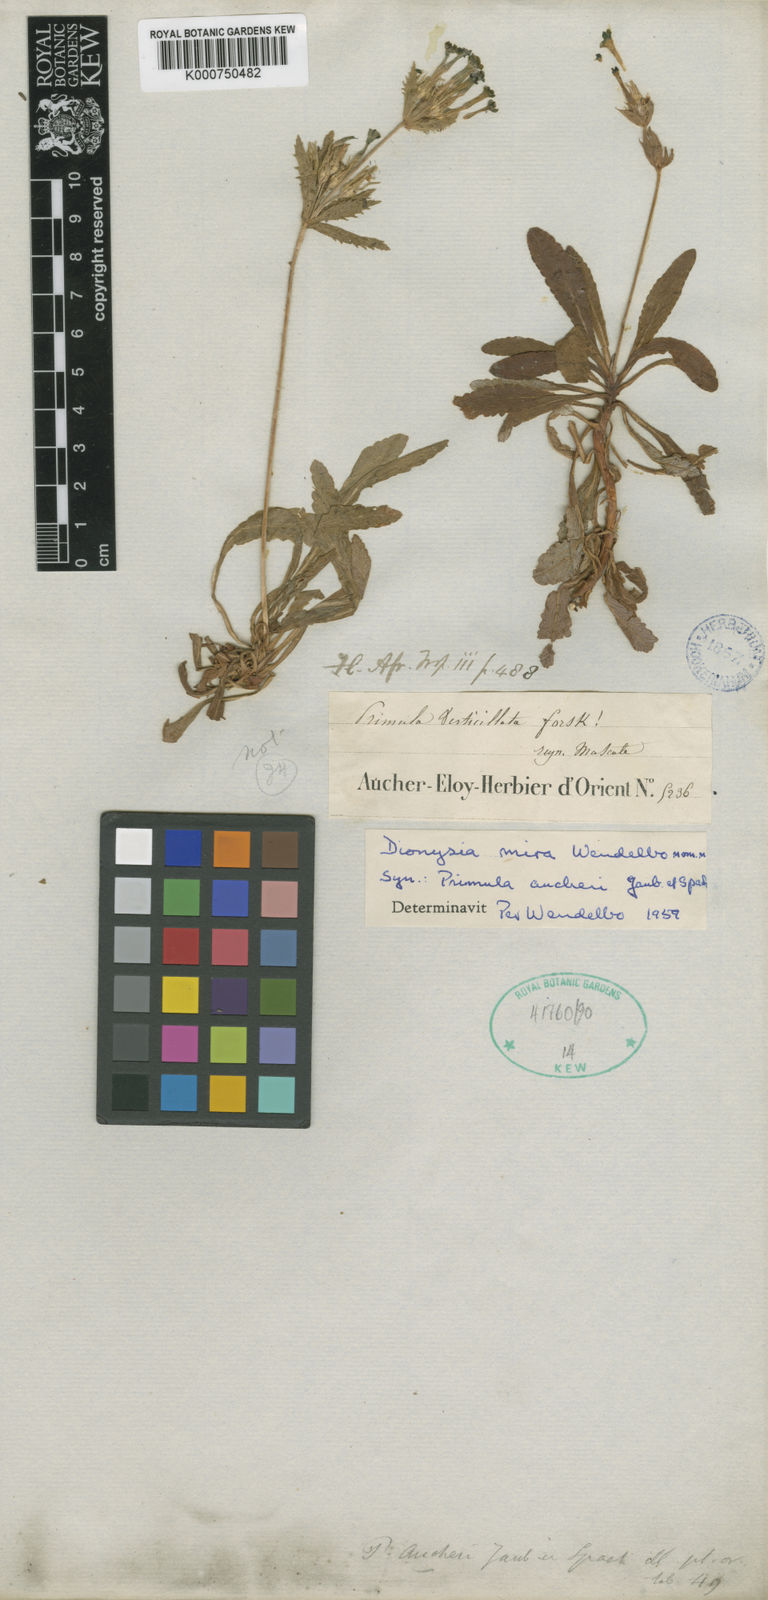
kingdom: Plantae
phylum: Tracheophyta
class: Magnoliopsida
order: Ericales
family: Primulaceae
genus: Dionysia
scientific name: Dionysia mira
